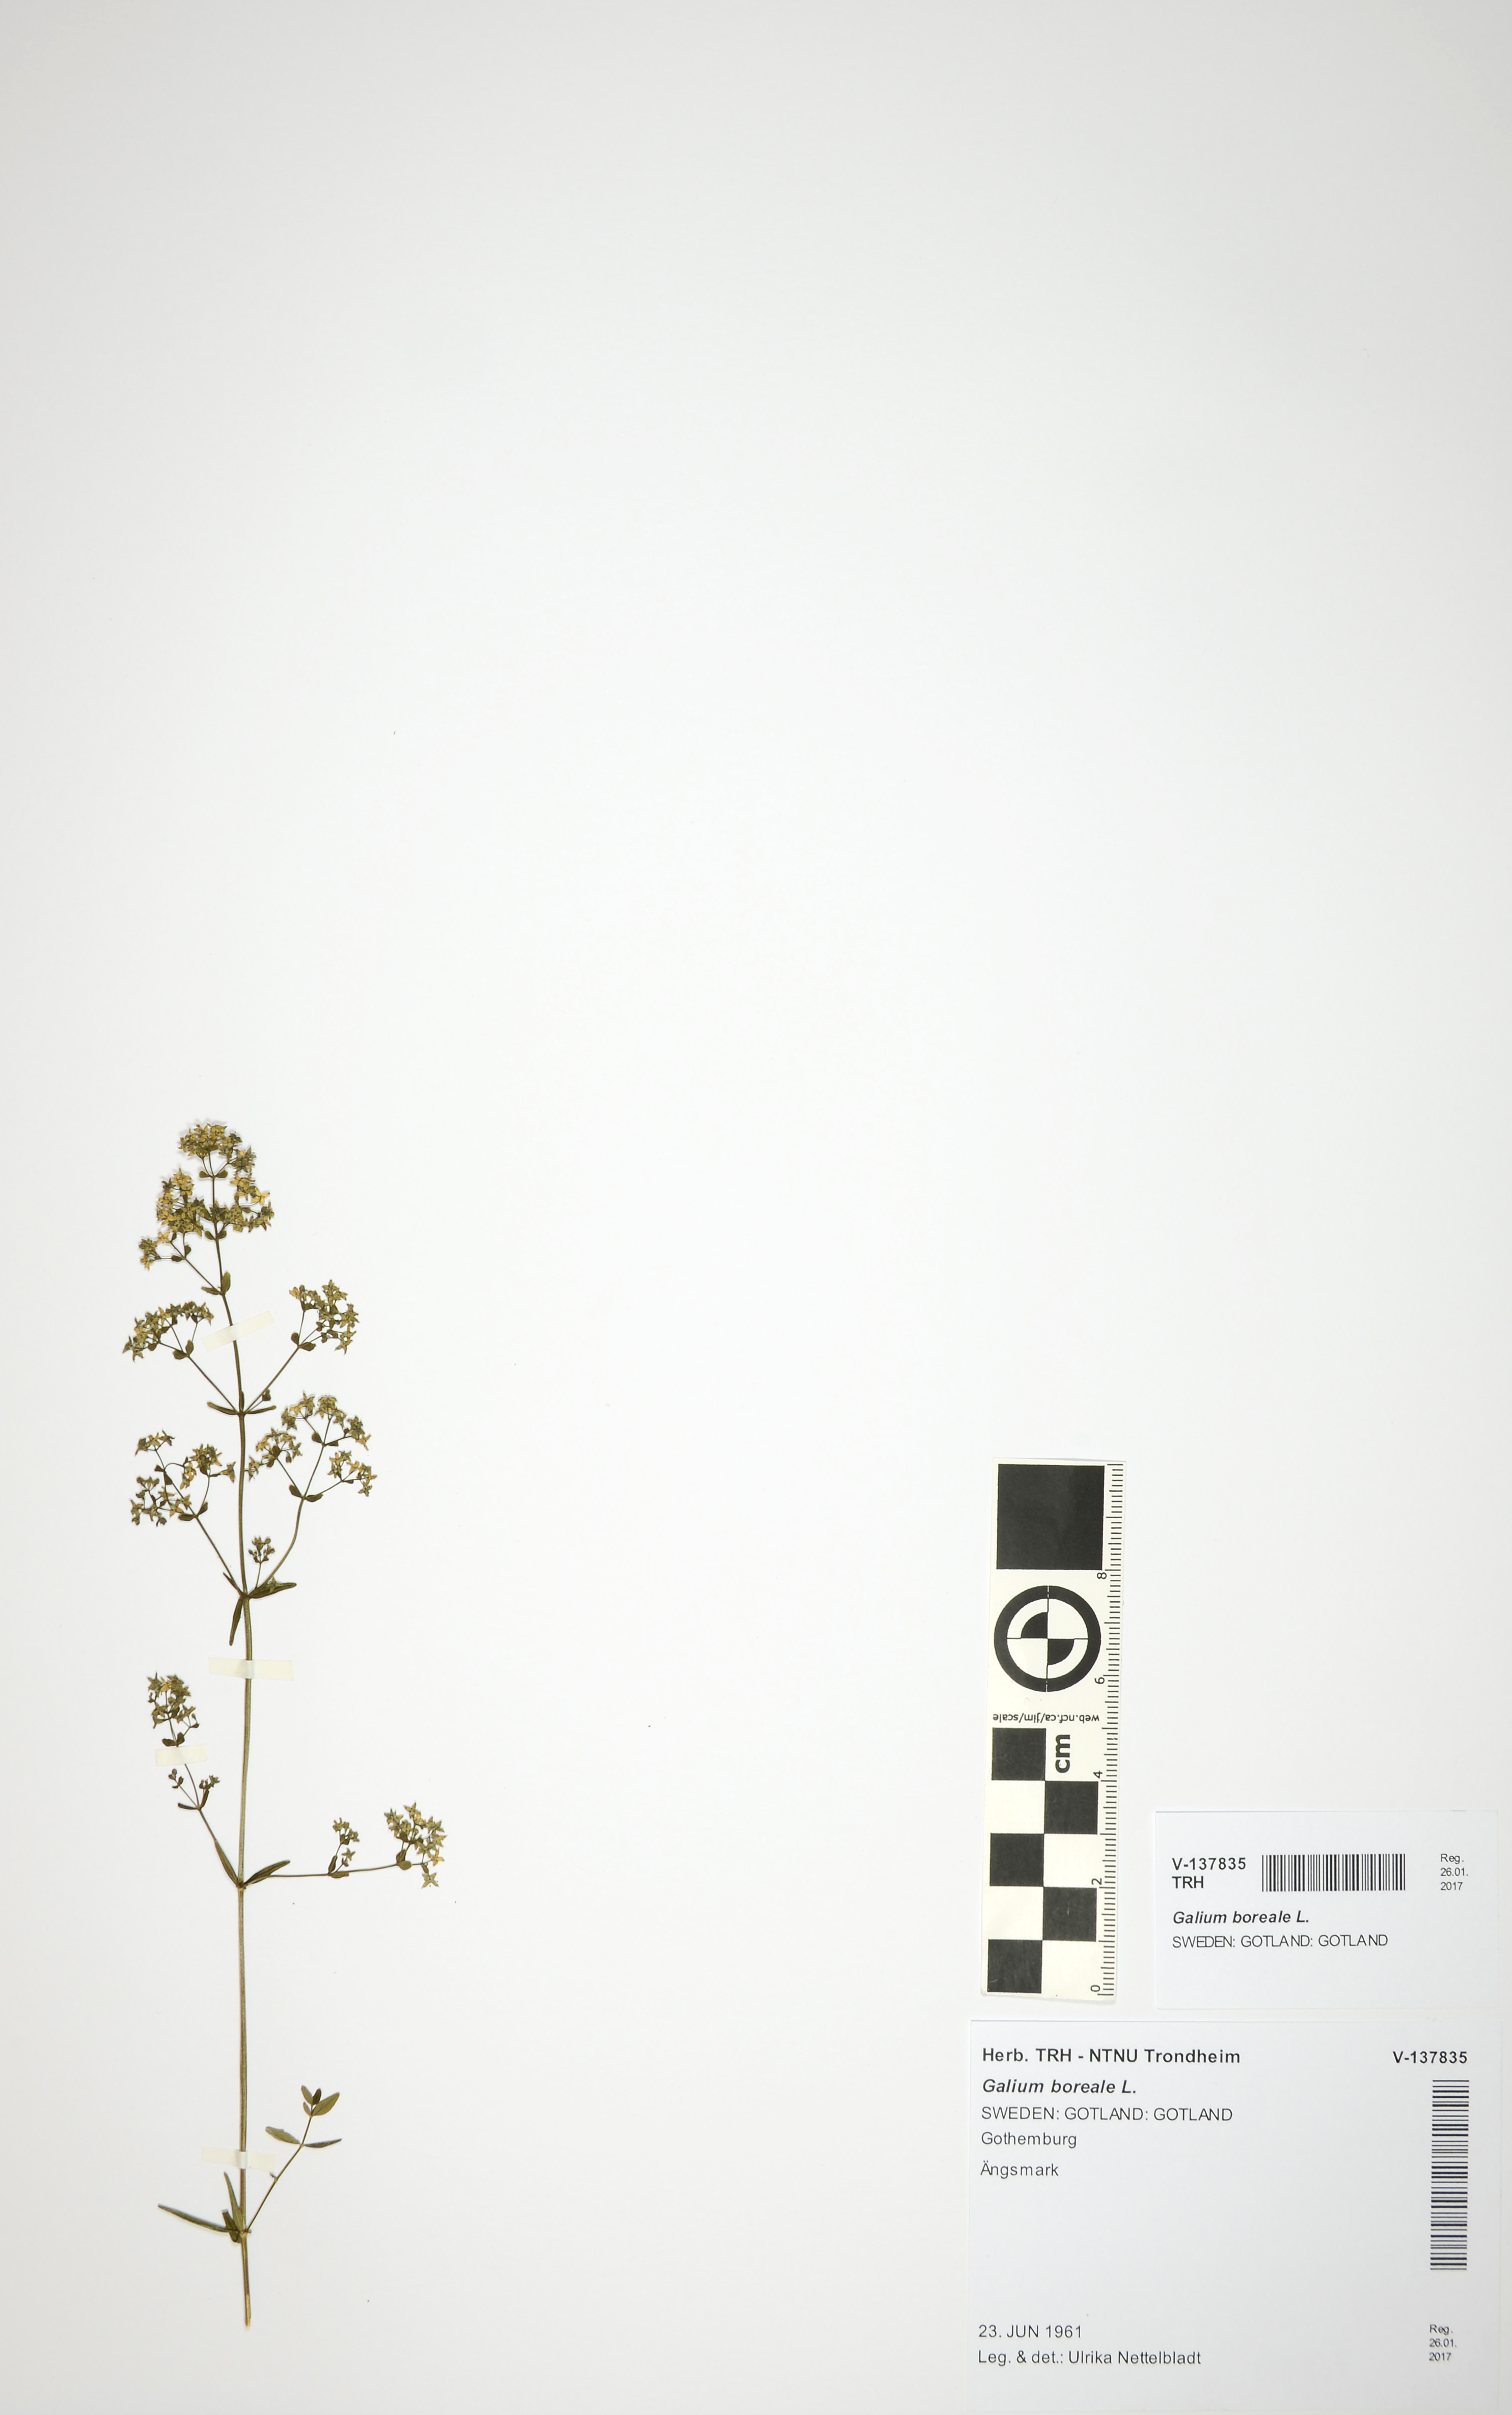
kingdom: Plantae
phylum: Tracheophyta
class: Magnoliopsida
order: Gentianales
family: Rubiaceae
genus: Galium
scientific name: Galium boreale
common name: Northern bedstraw
